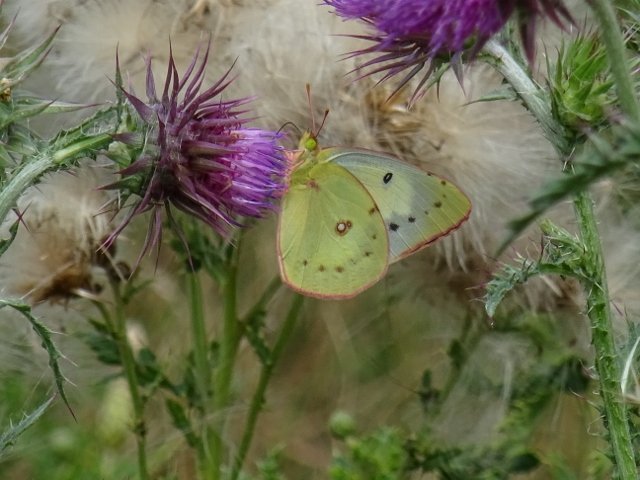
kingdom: Animalia
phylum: Arthropoda
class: Insecta
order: Lepidoptera
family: Pieridae
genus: Colias
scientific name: Colias philodice
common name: Clouded Sulphur
